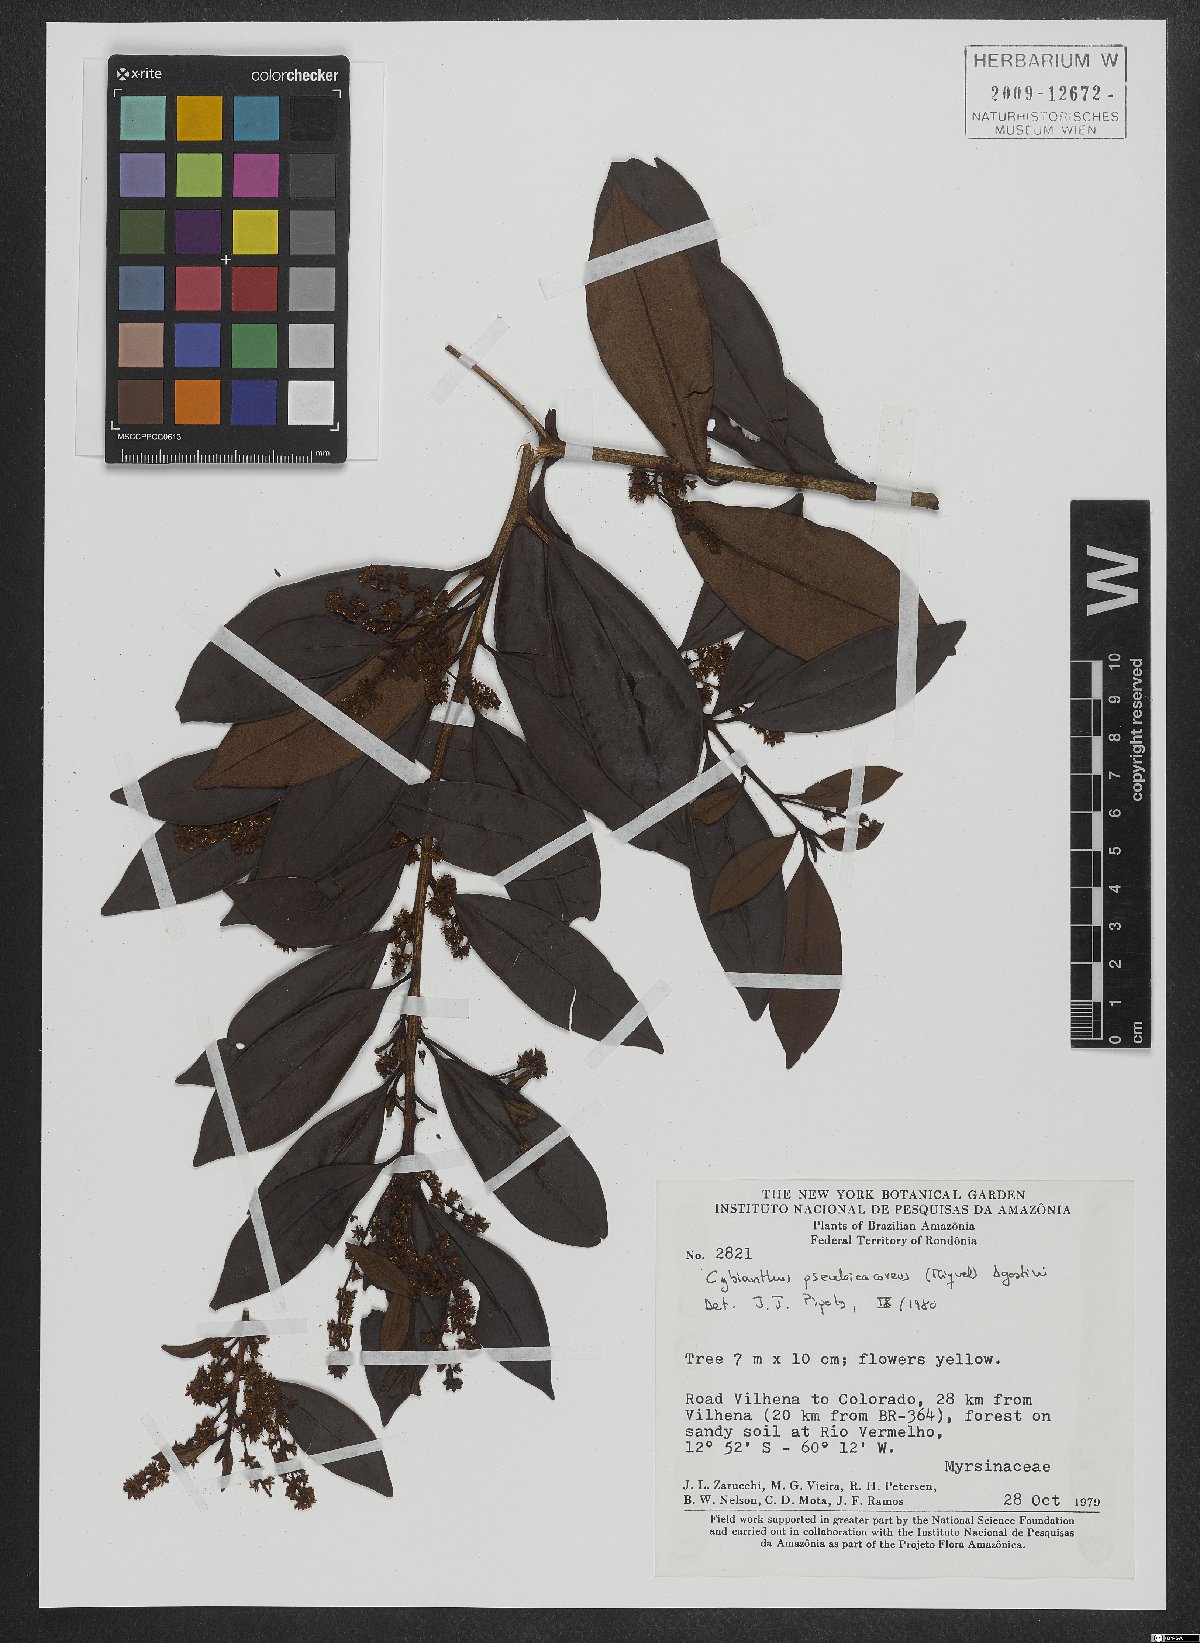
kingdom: Plantae
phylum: Tracheophyta
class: Magnoliopsida
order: Ericales
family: Primulaceae
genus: Cybianthus
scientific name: Cybianthus guyanensis
